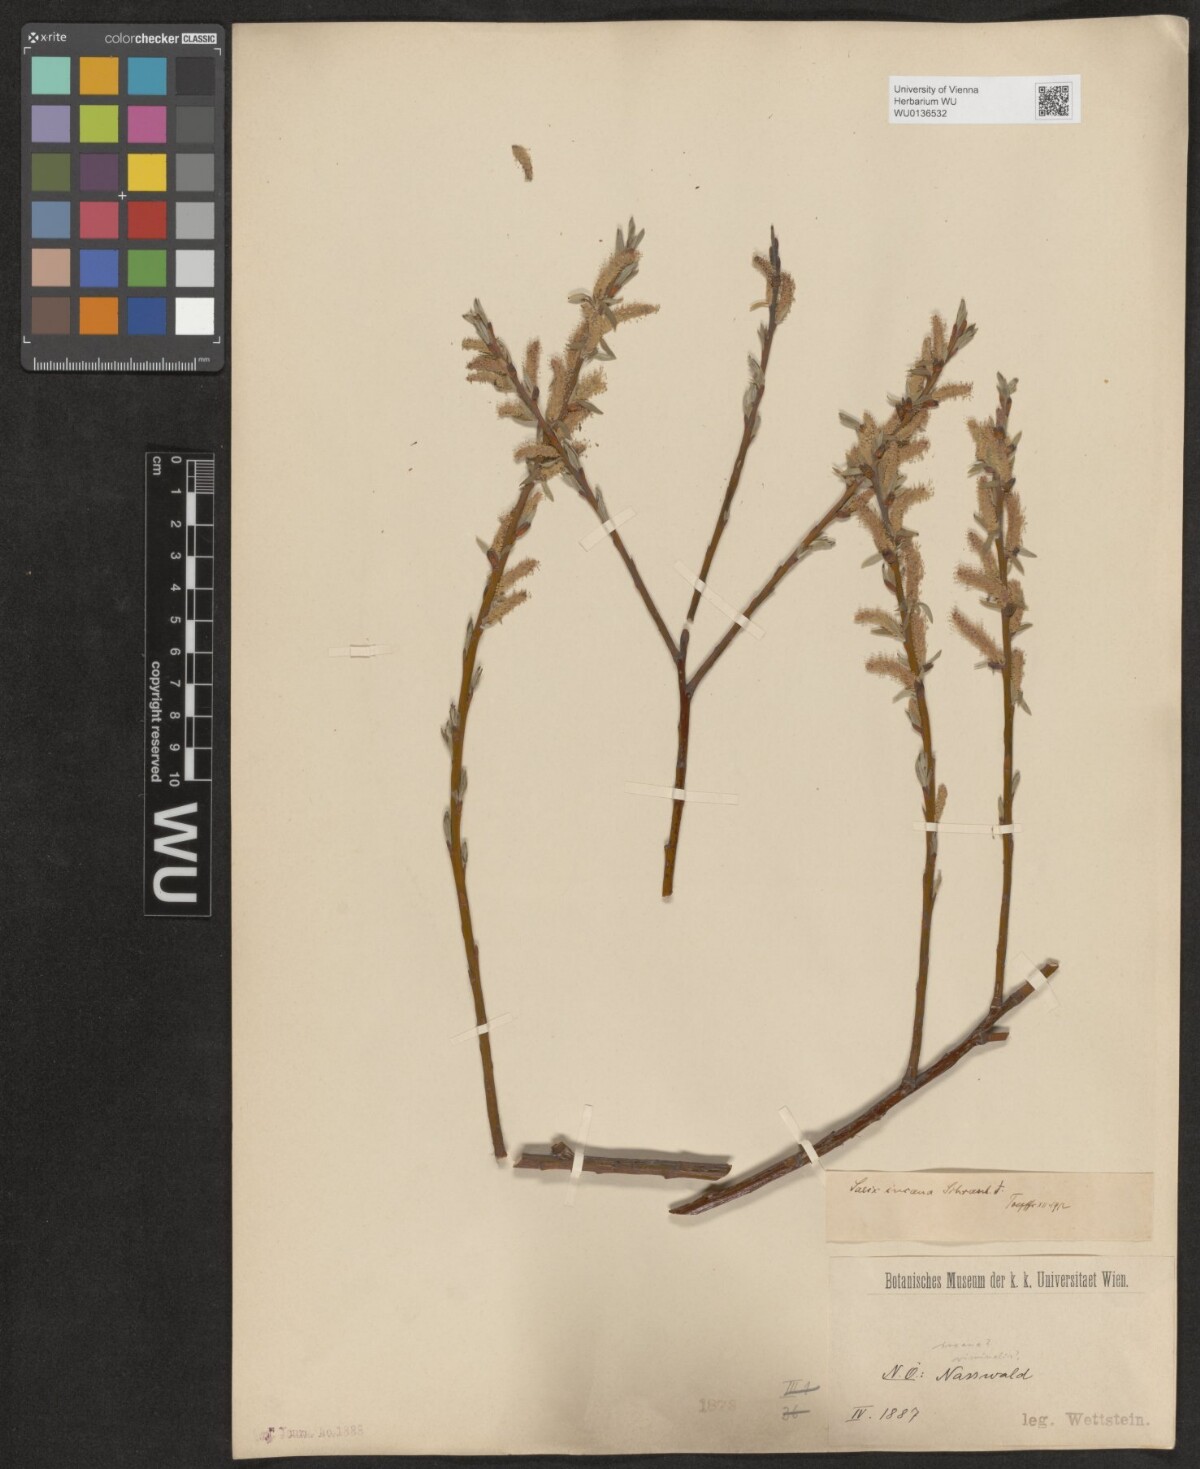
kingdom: Plantae
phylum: Tracheophyta
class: Magnoliopsida
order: Malpighiales
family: Salicaceae
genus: Salix
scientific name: Salix eleagnos
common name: Elaeagnus willow
